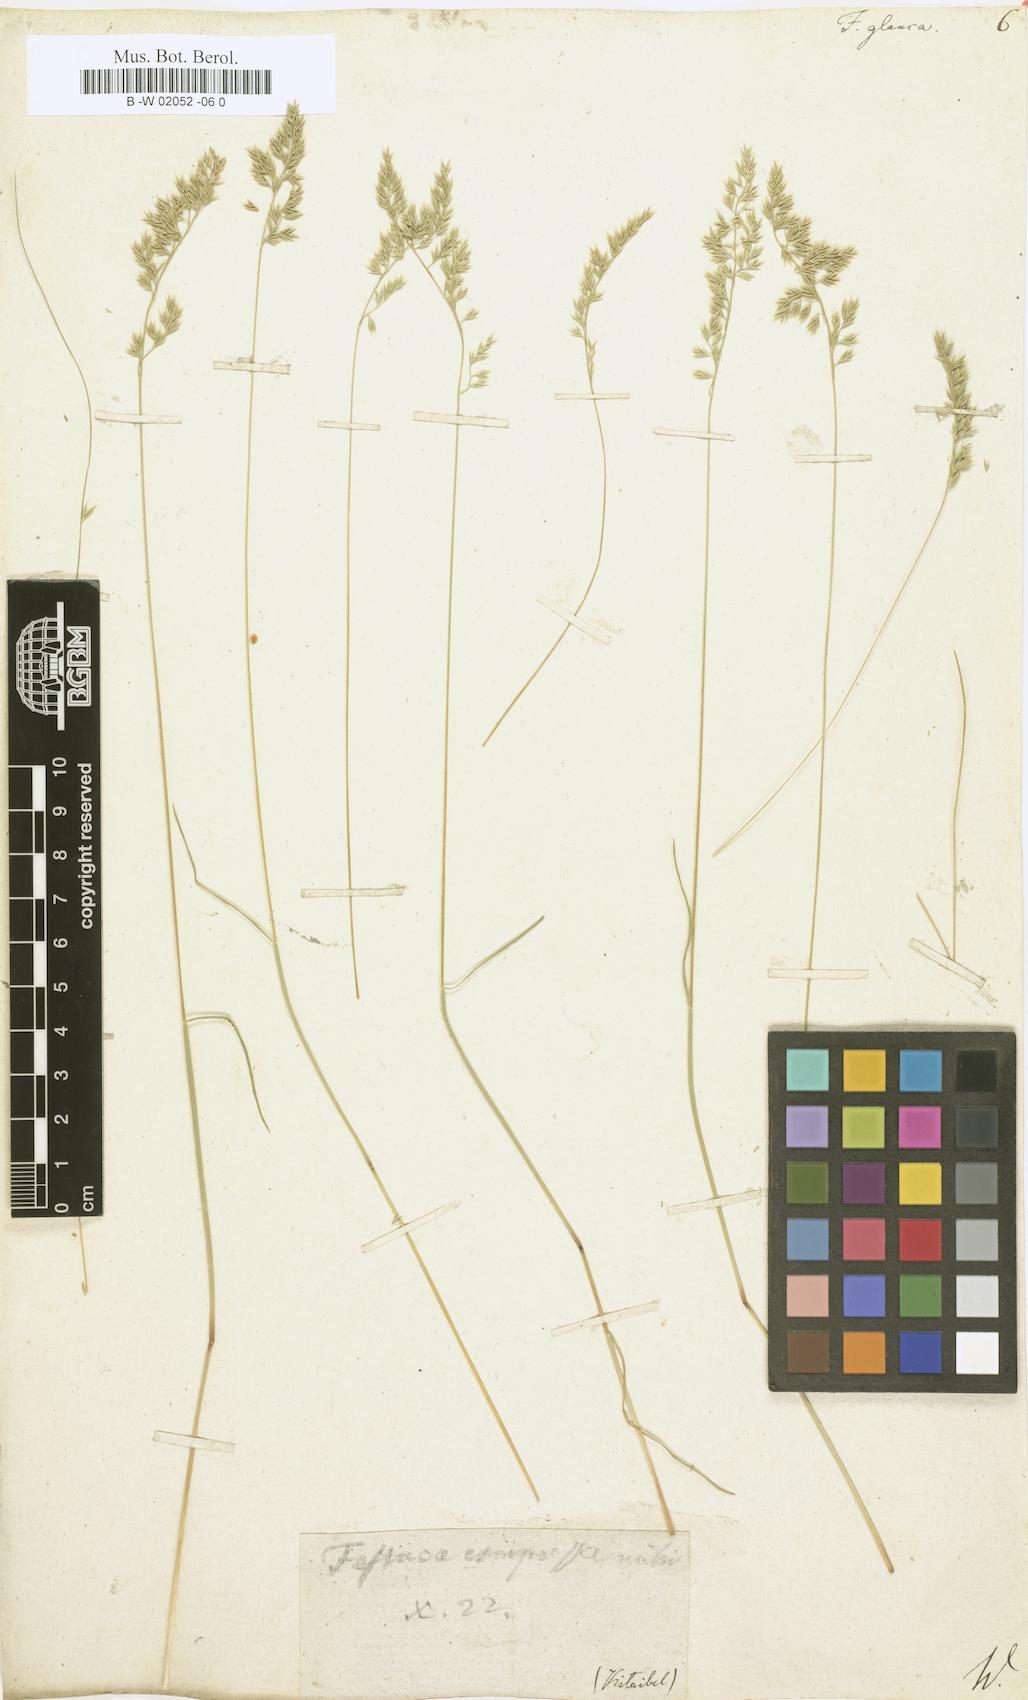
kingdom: Plantae
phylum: Tracheophyta
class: Liliopsida
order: Poales
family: Poaceae
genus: Festuca
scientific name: Festuca glauca
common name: Blue fescue
